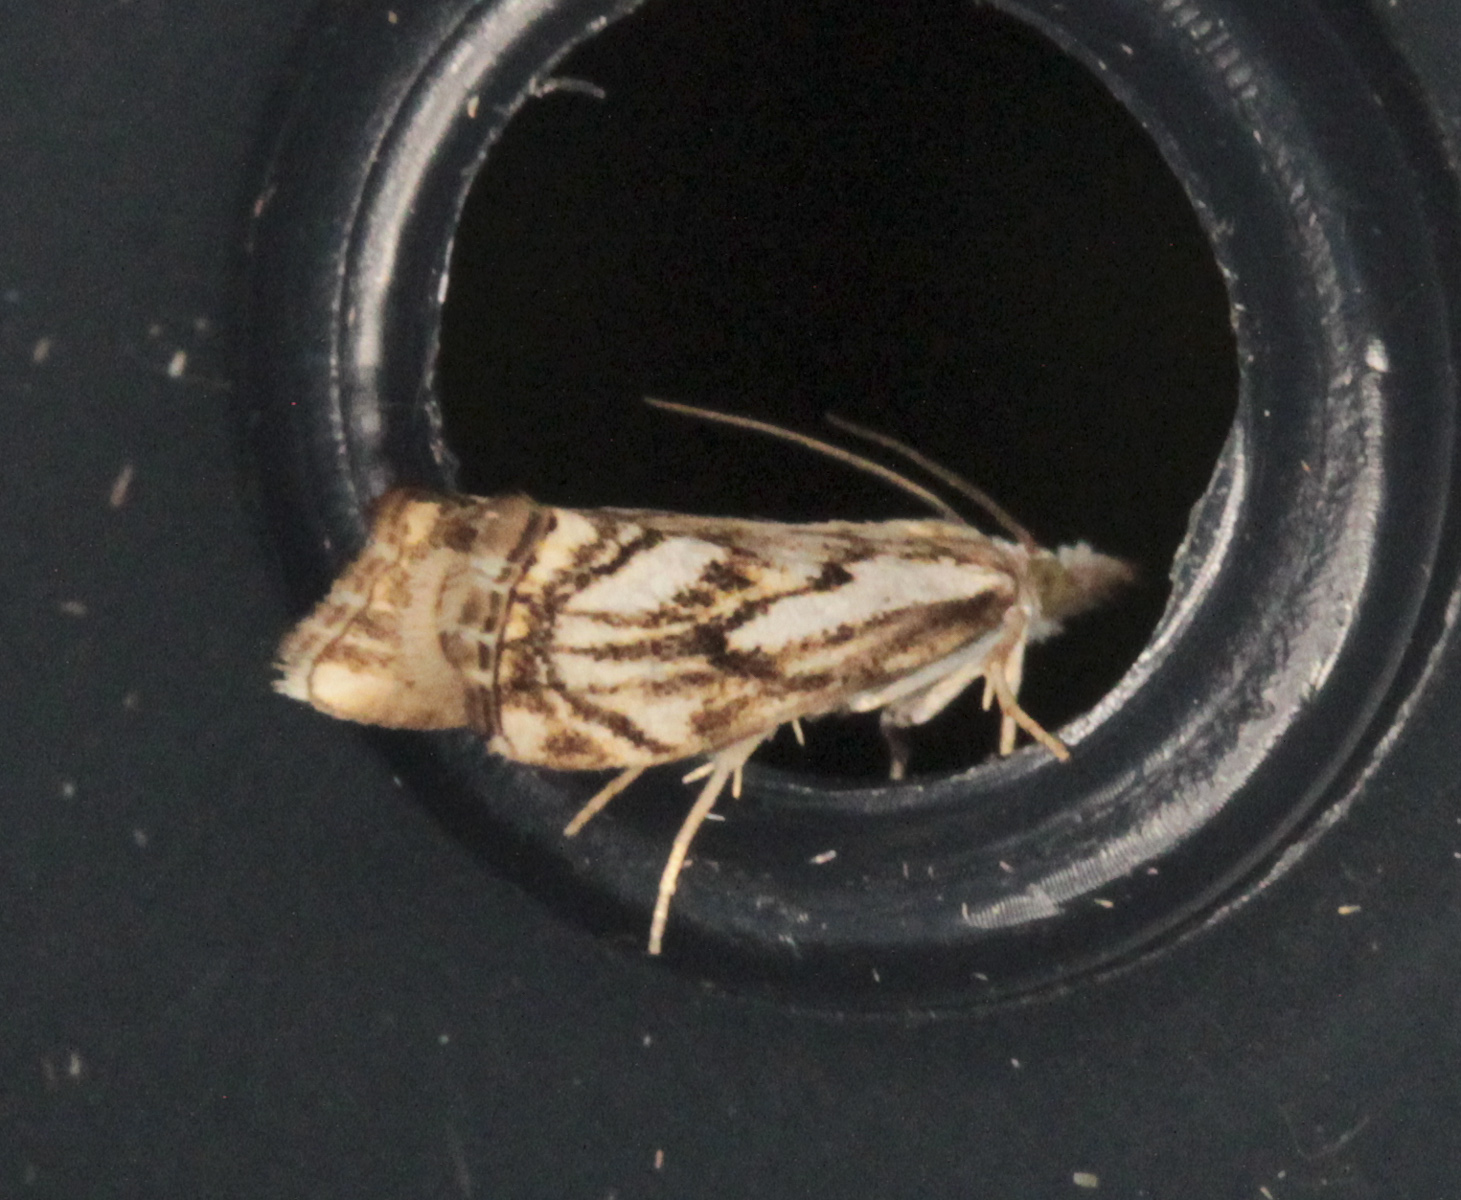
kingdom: Animalia
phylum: Arthropoda
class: Insecta
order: Lepidoptera
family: Crambidae
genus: Catoptria
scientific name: Catoptria falsella
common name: Chequered grass-veneer
